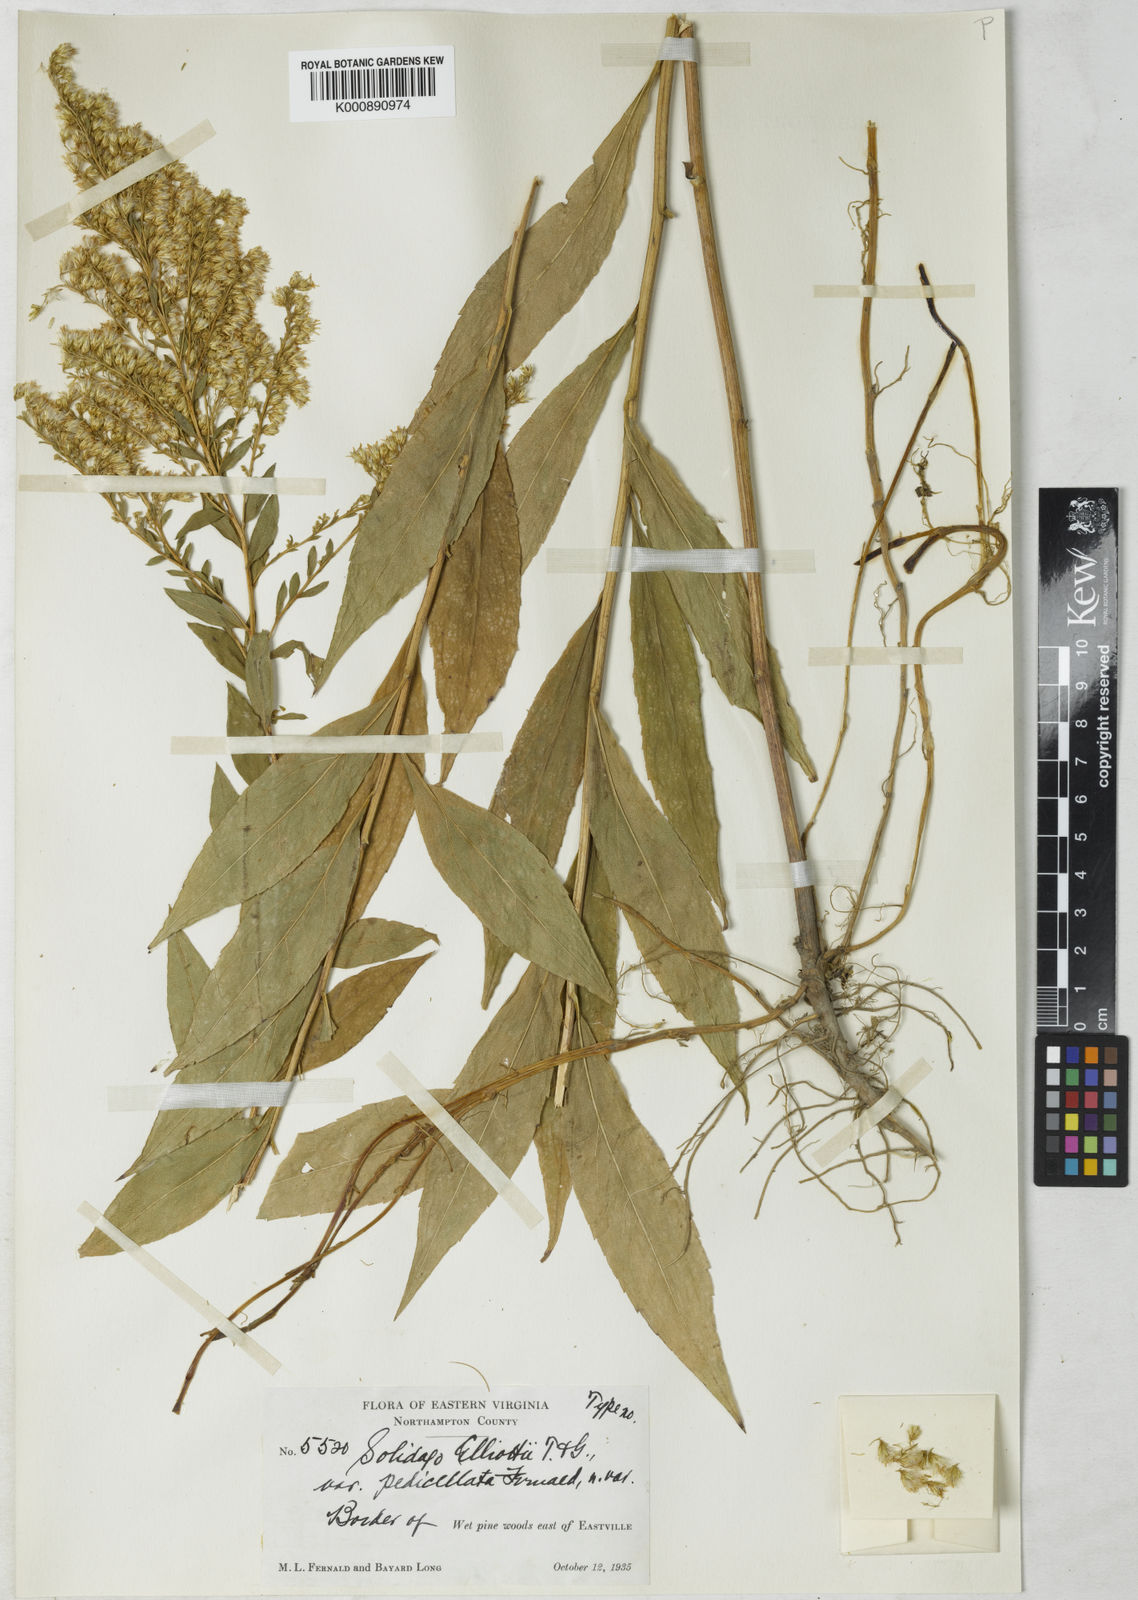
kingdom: Plantae
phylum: Tracheophyta
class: Magnoliopsida
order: Asterales
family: Asteraceae
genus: Solidago
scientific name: Solidago latissimifolia
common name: Elliott's goldenrod
